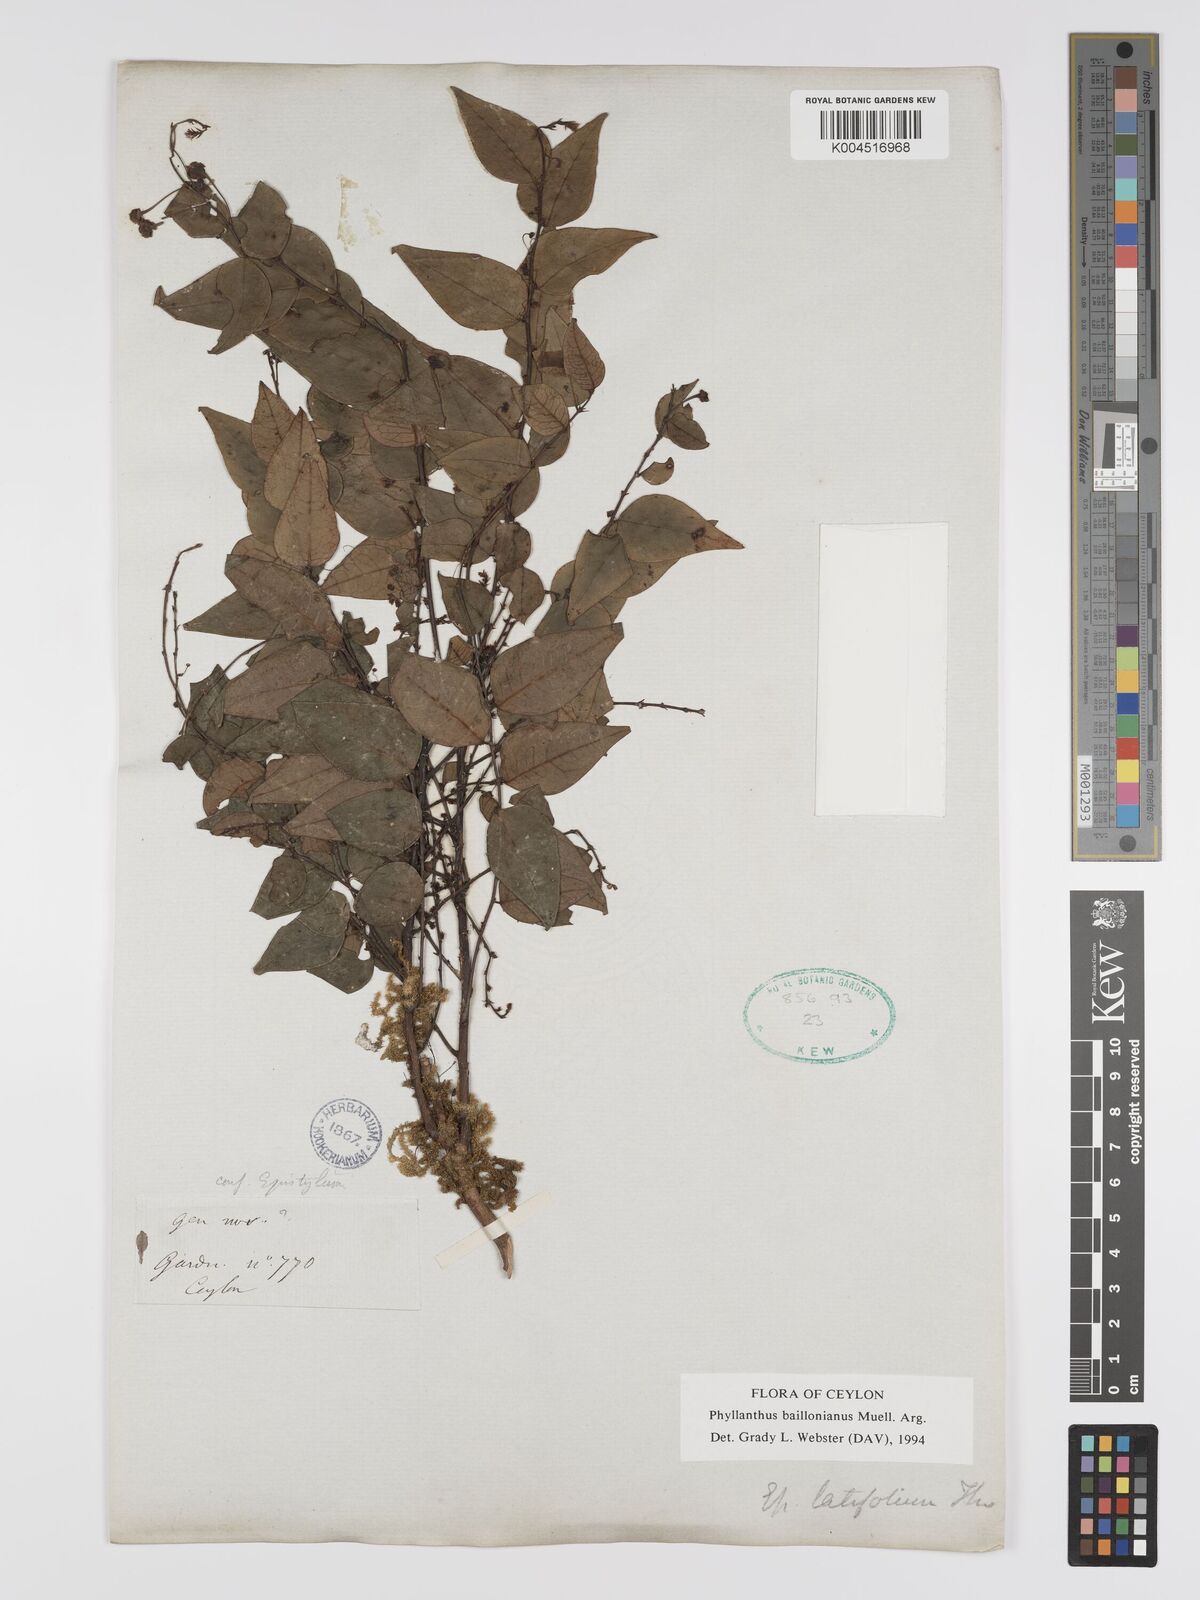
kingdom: Plantae
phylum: Tracheophyta
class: Magnoliopsida
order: Malpighiales
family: Phyllanthaceae
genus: Phyllanthus
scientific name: Phyllanthus baillonianus
